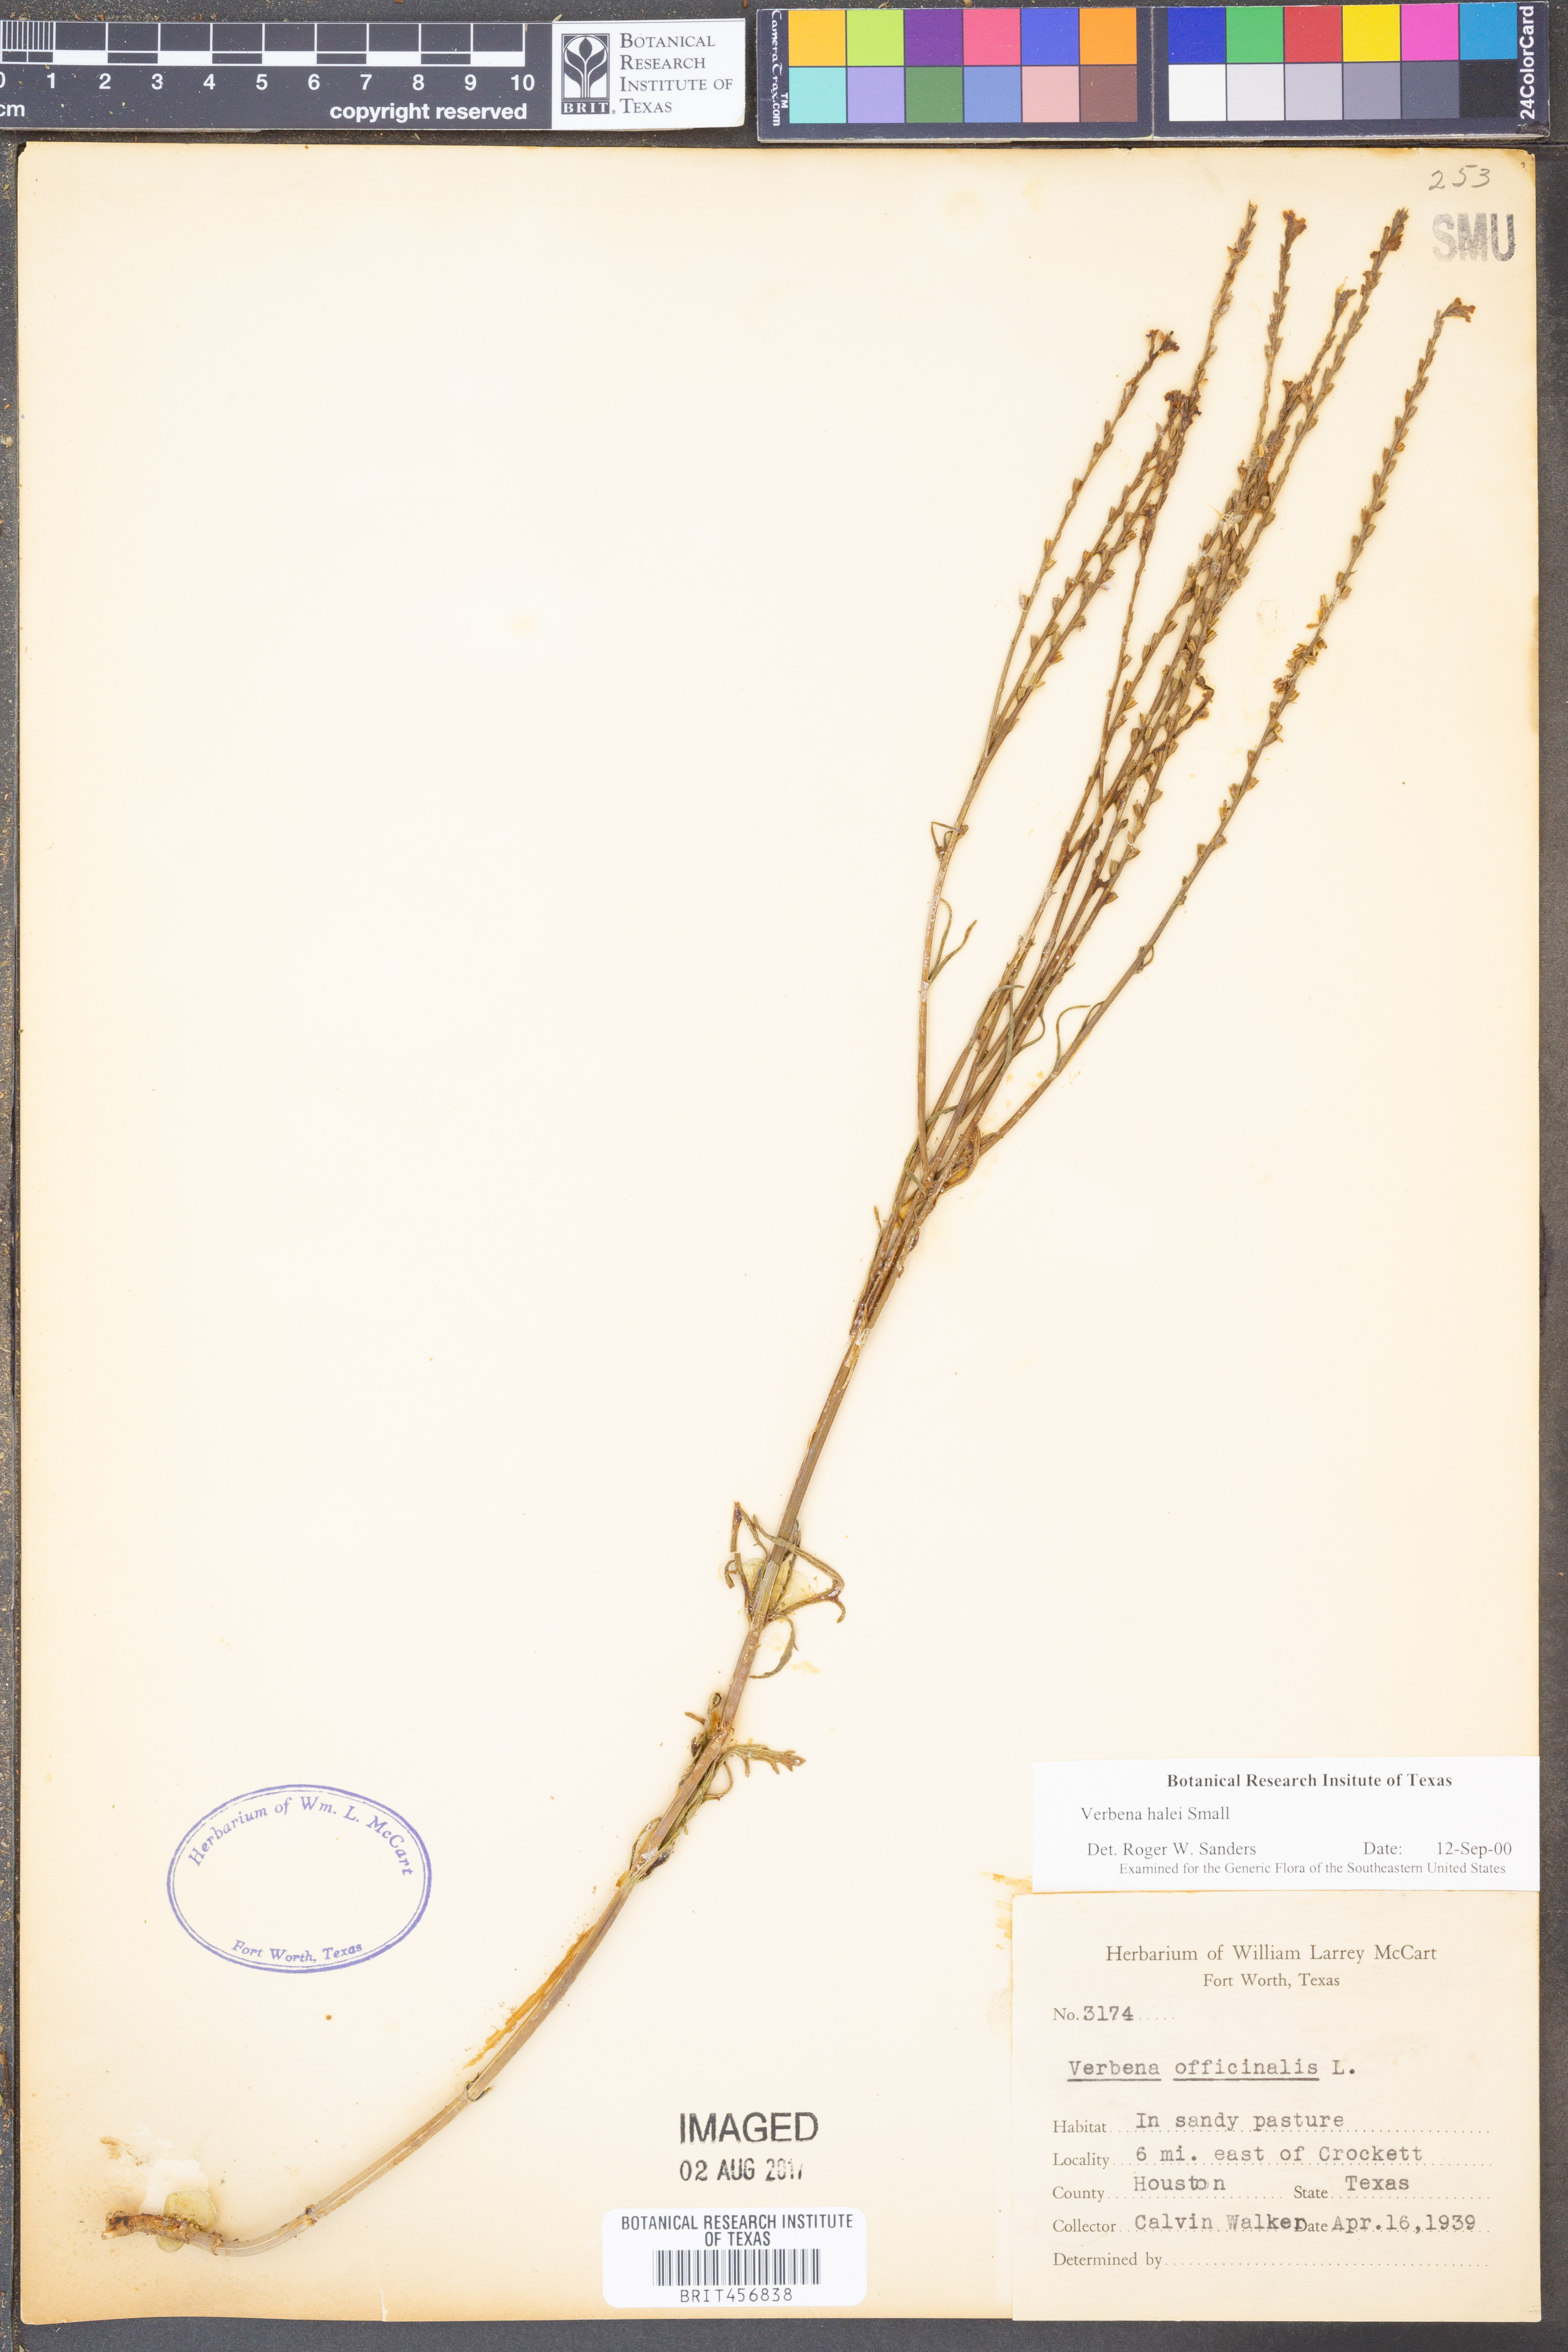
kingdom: Plantae
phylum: Tracheophyta
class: Magnoliopsida
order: Lamiales
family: Verbenaceae
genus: Verbena
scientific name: Verbena halei
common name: Texas vervain
